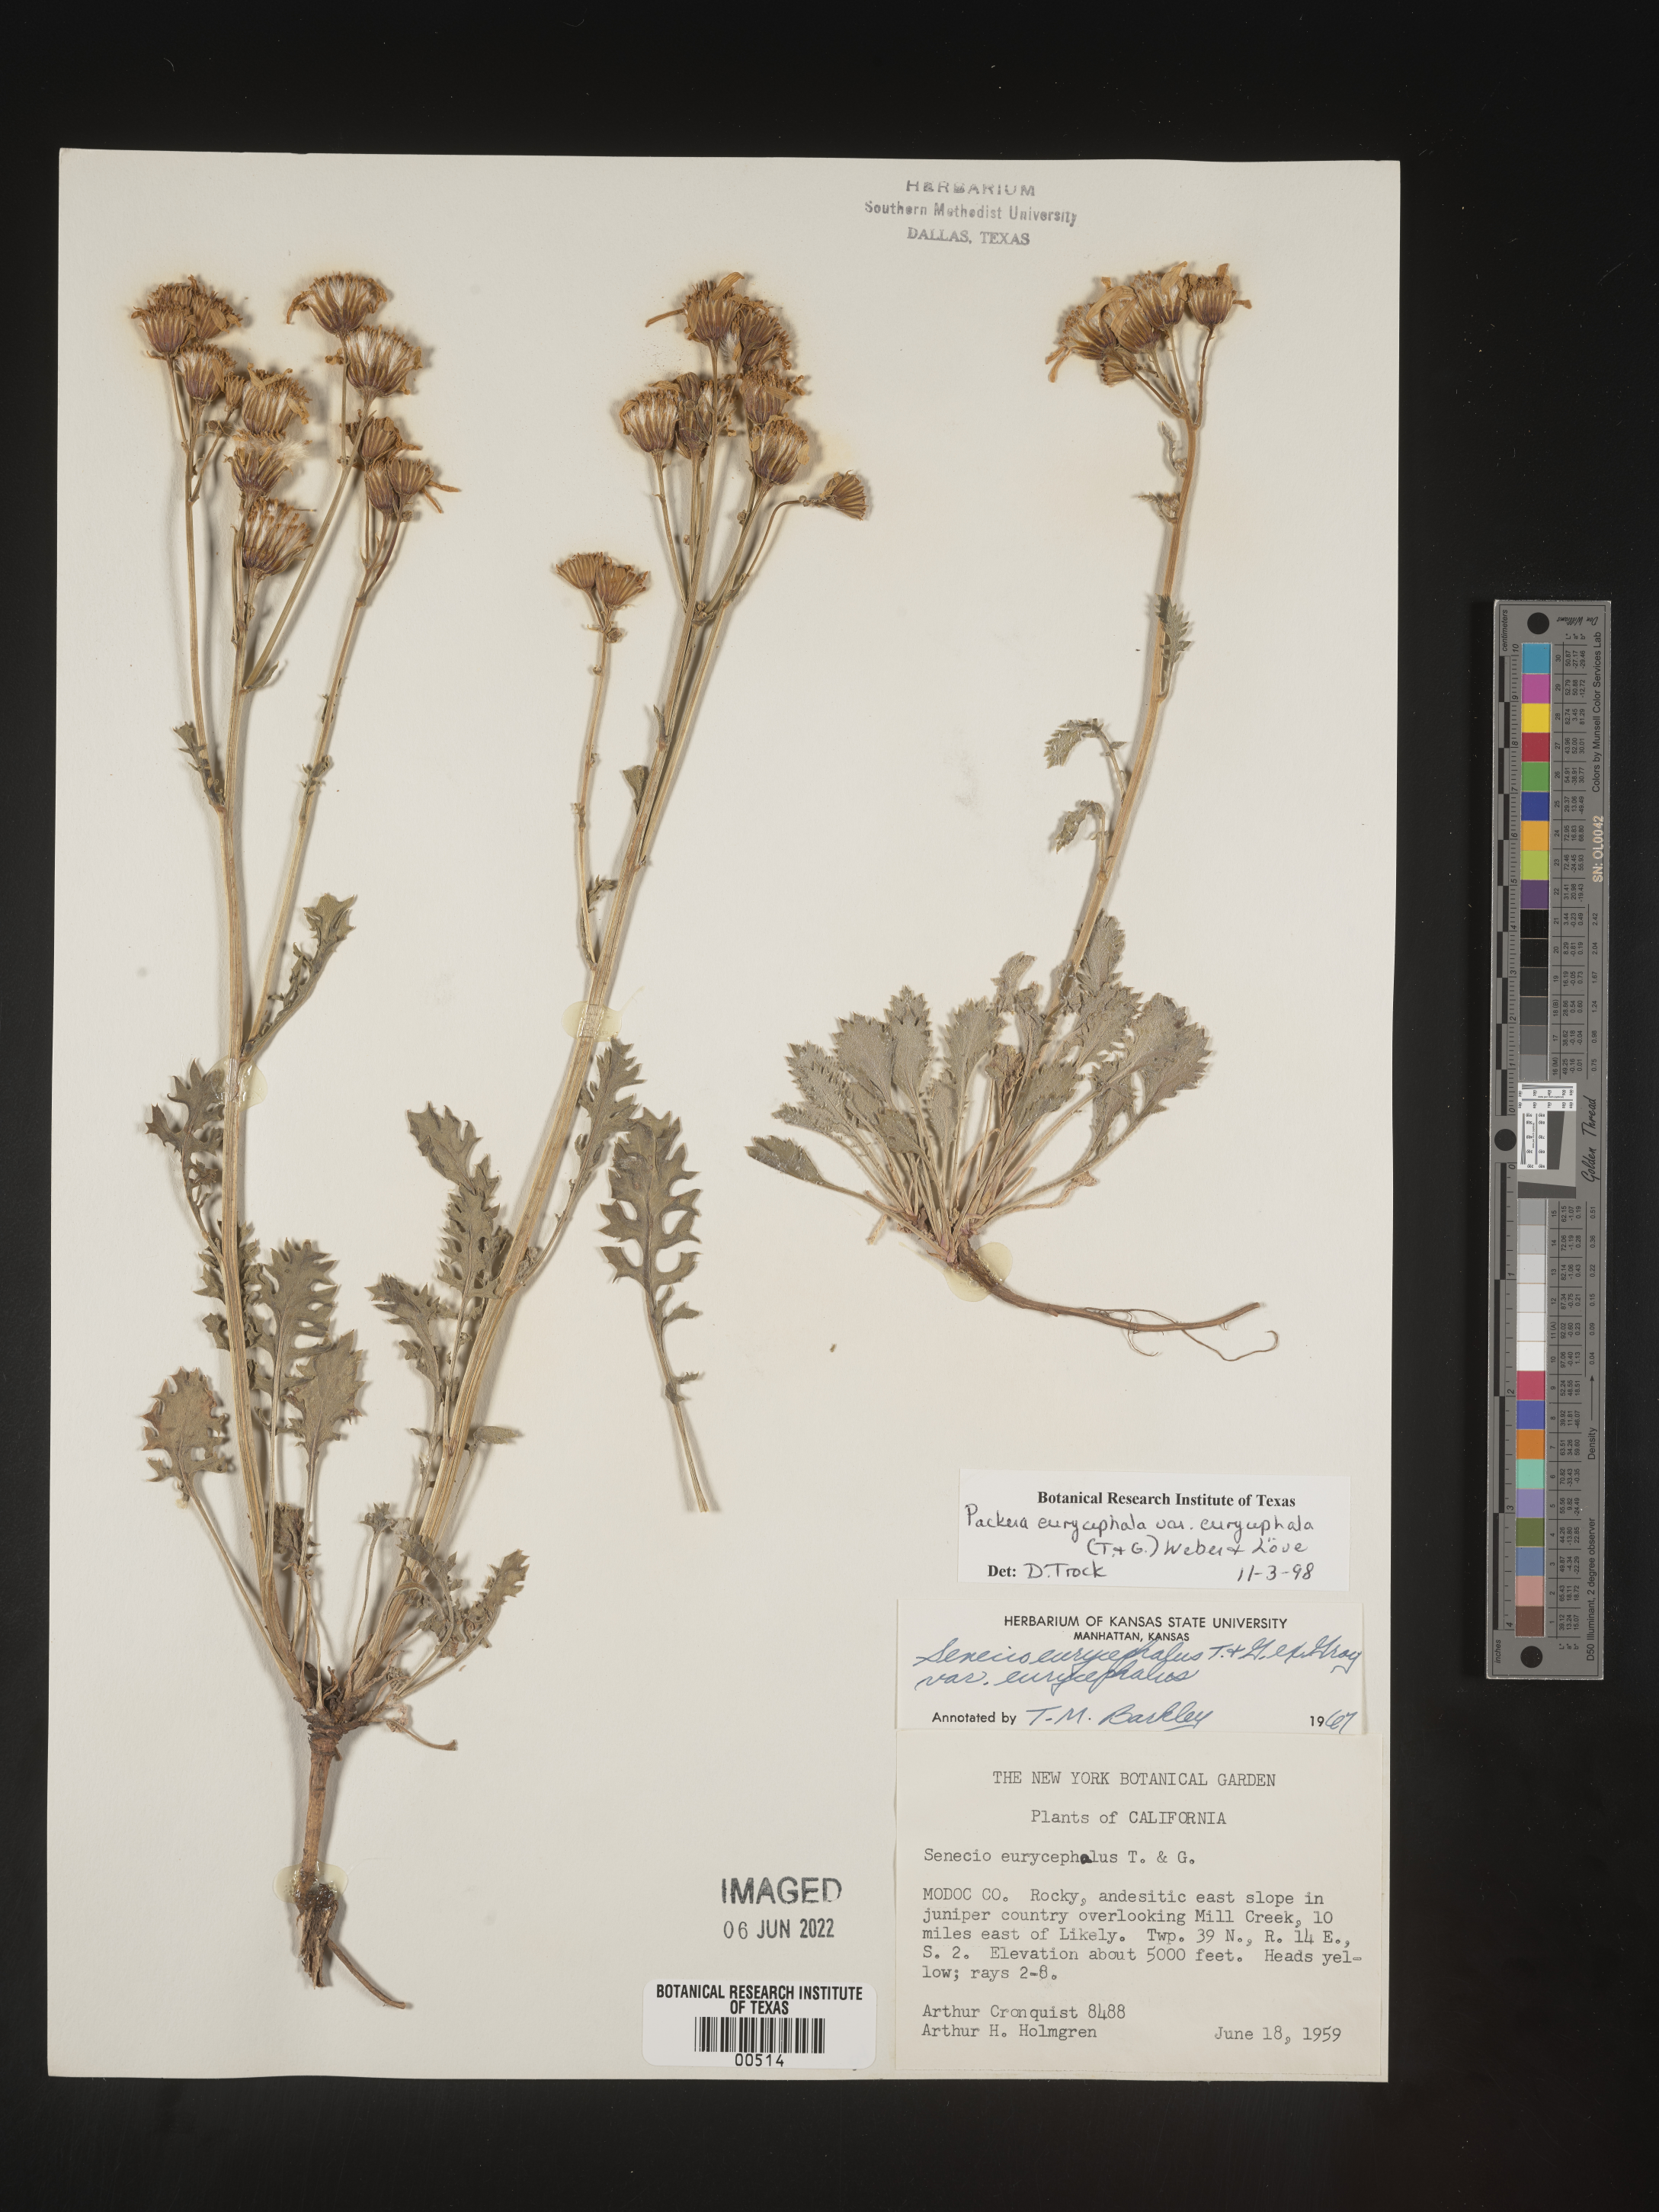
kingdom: Plantae
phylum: Tracheophyta
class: Magnoliopsida
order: Asterales
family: Asteraceae
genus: Packera
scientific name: Packera eurycephala
